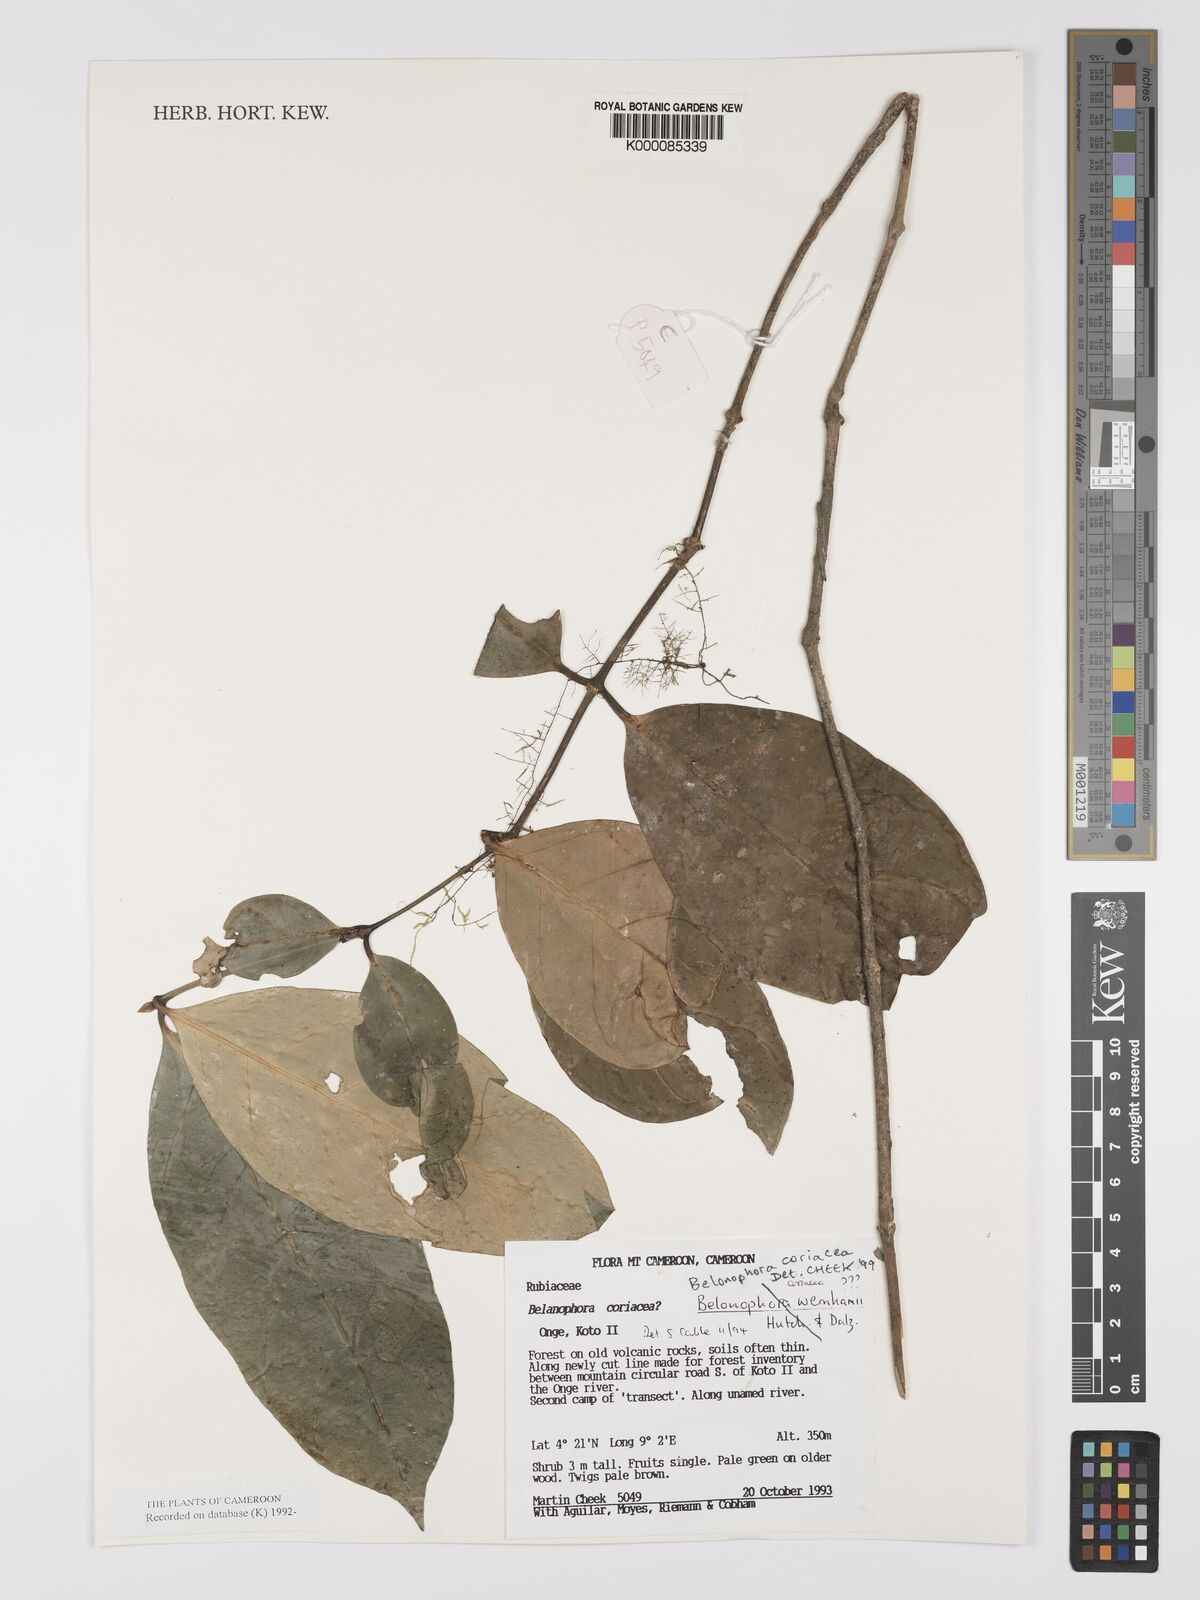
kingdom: Plantae
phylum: Tracheophyta
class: Magnoliopsida
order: Gentianales
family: Rubiaceae
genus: Belonophora
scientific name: Belonophora coriacea
